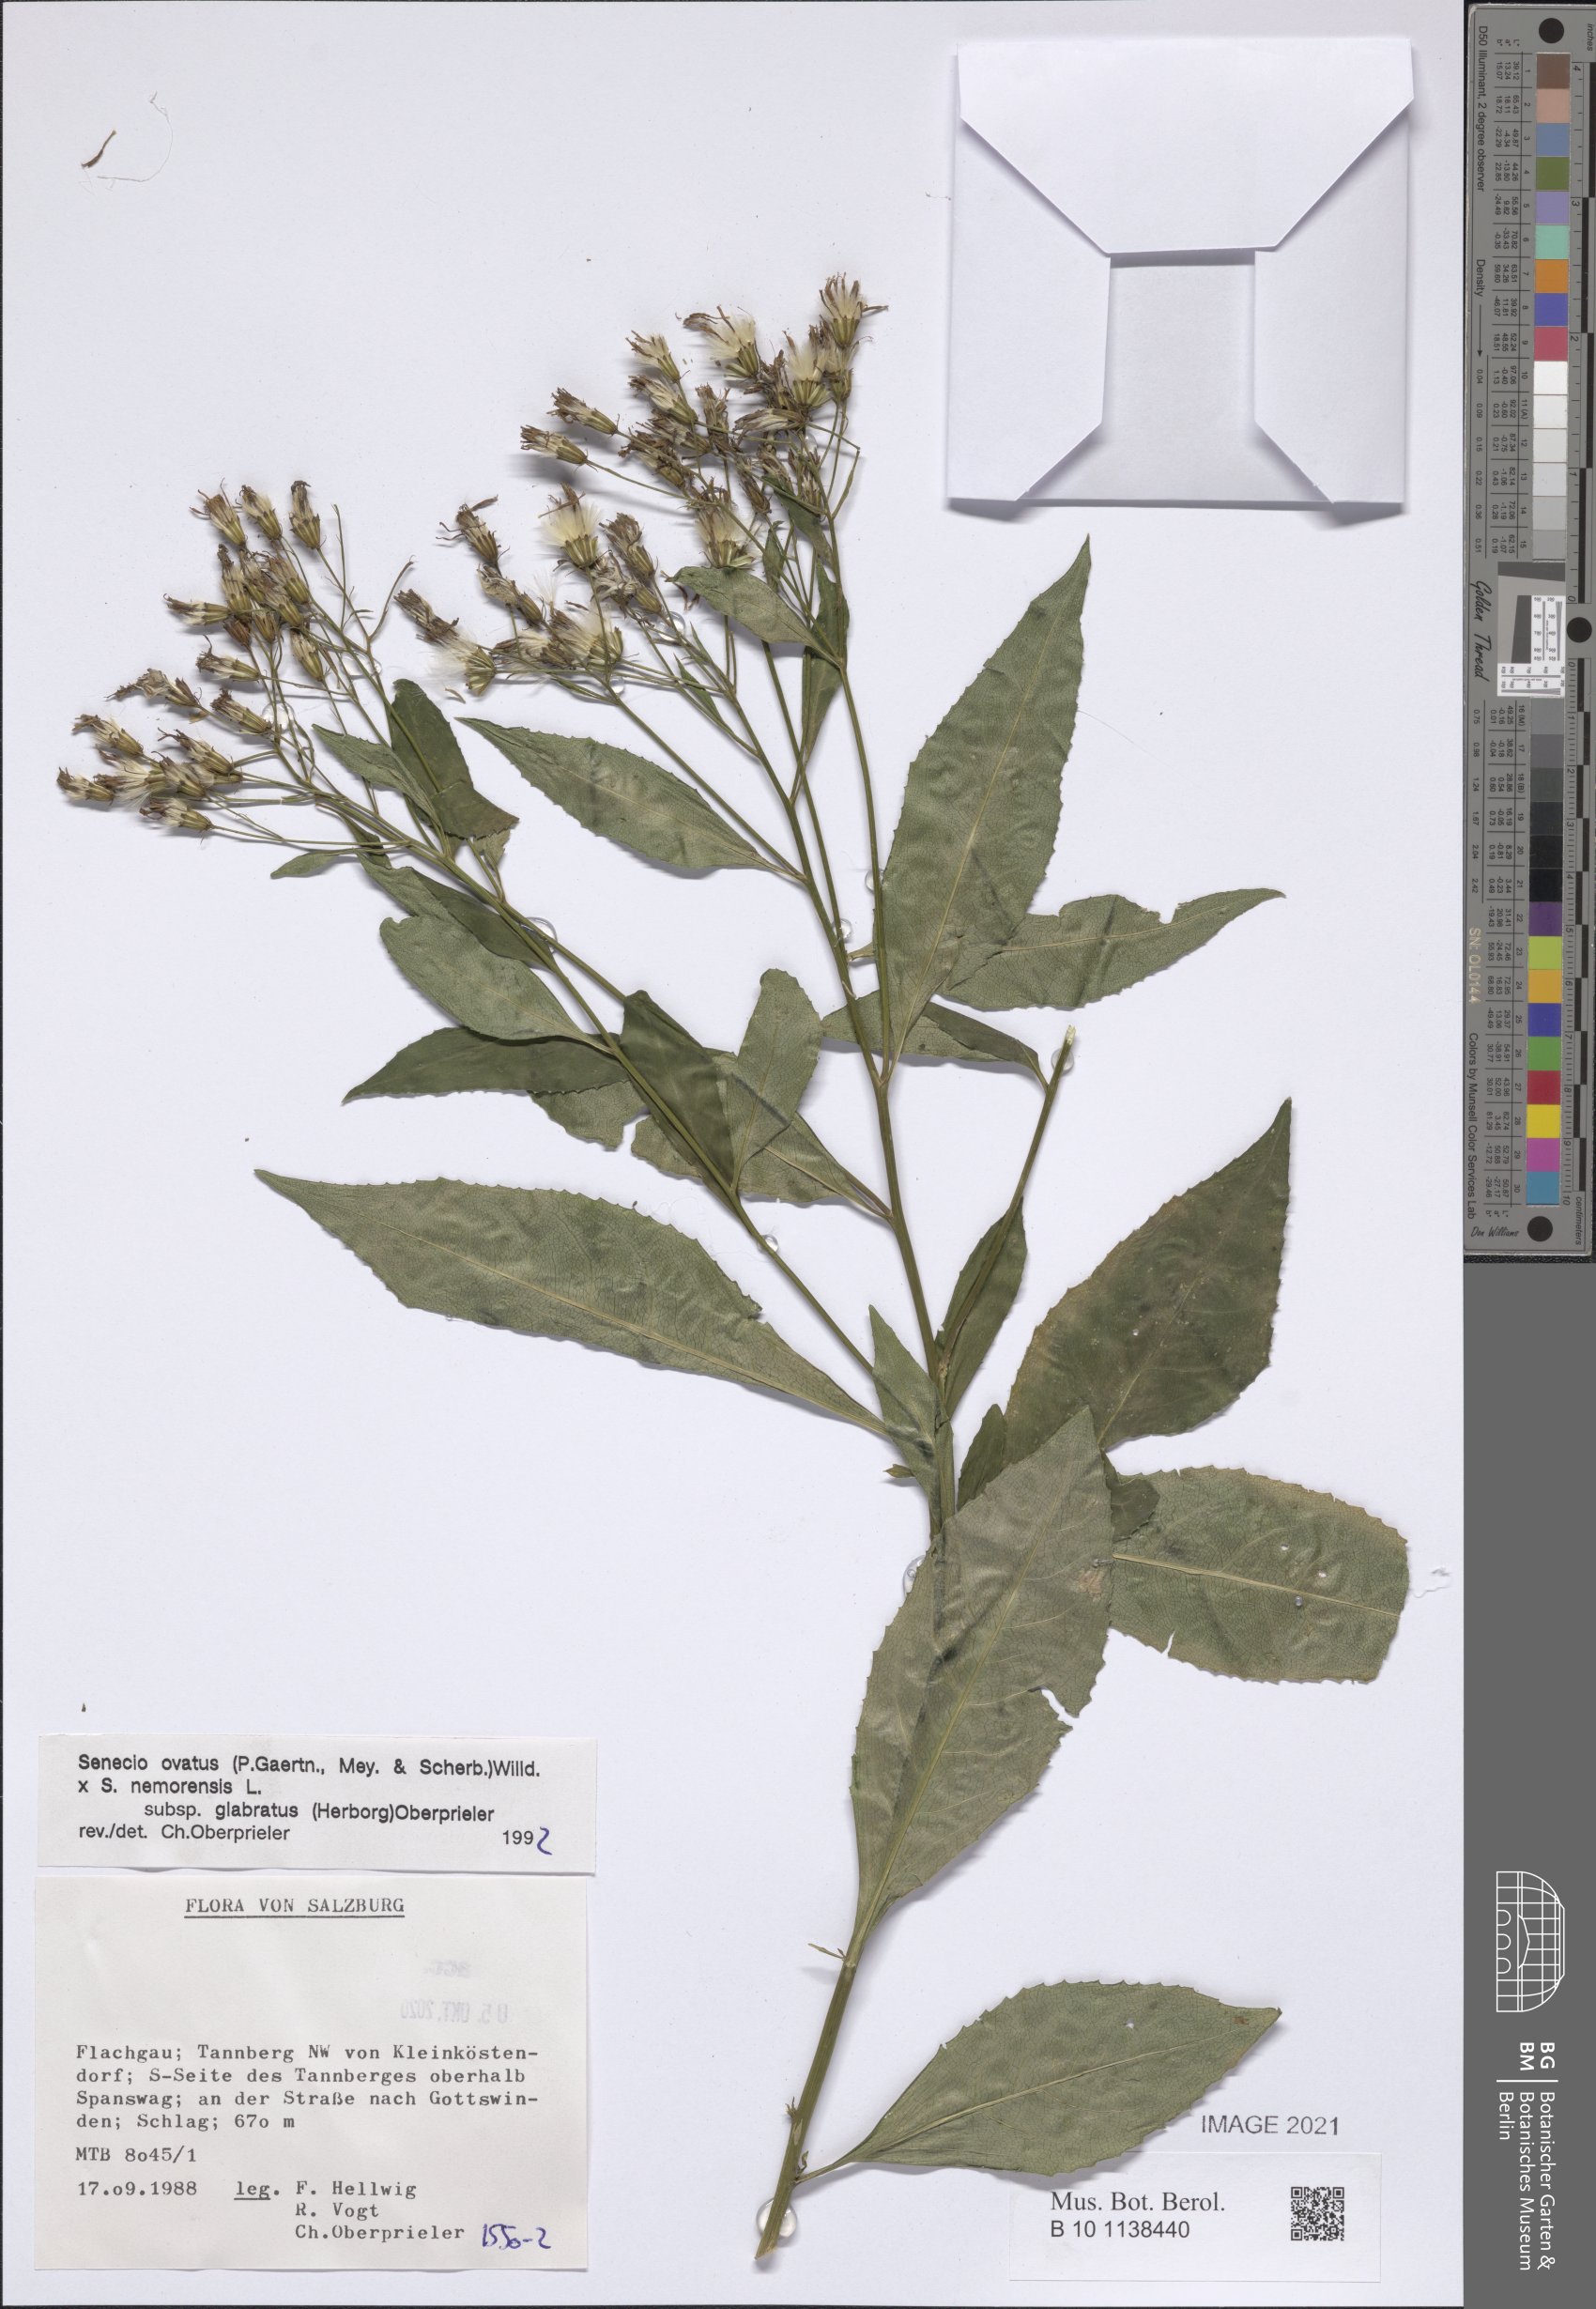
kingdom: Plantae
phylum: Tracheophyta
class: Magnoliopsida
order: Asterales
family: Asteraceae
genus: Senecio
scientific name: Senecio ovatus
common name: Wood ragwort
